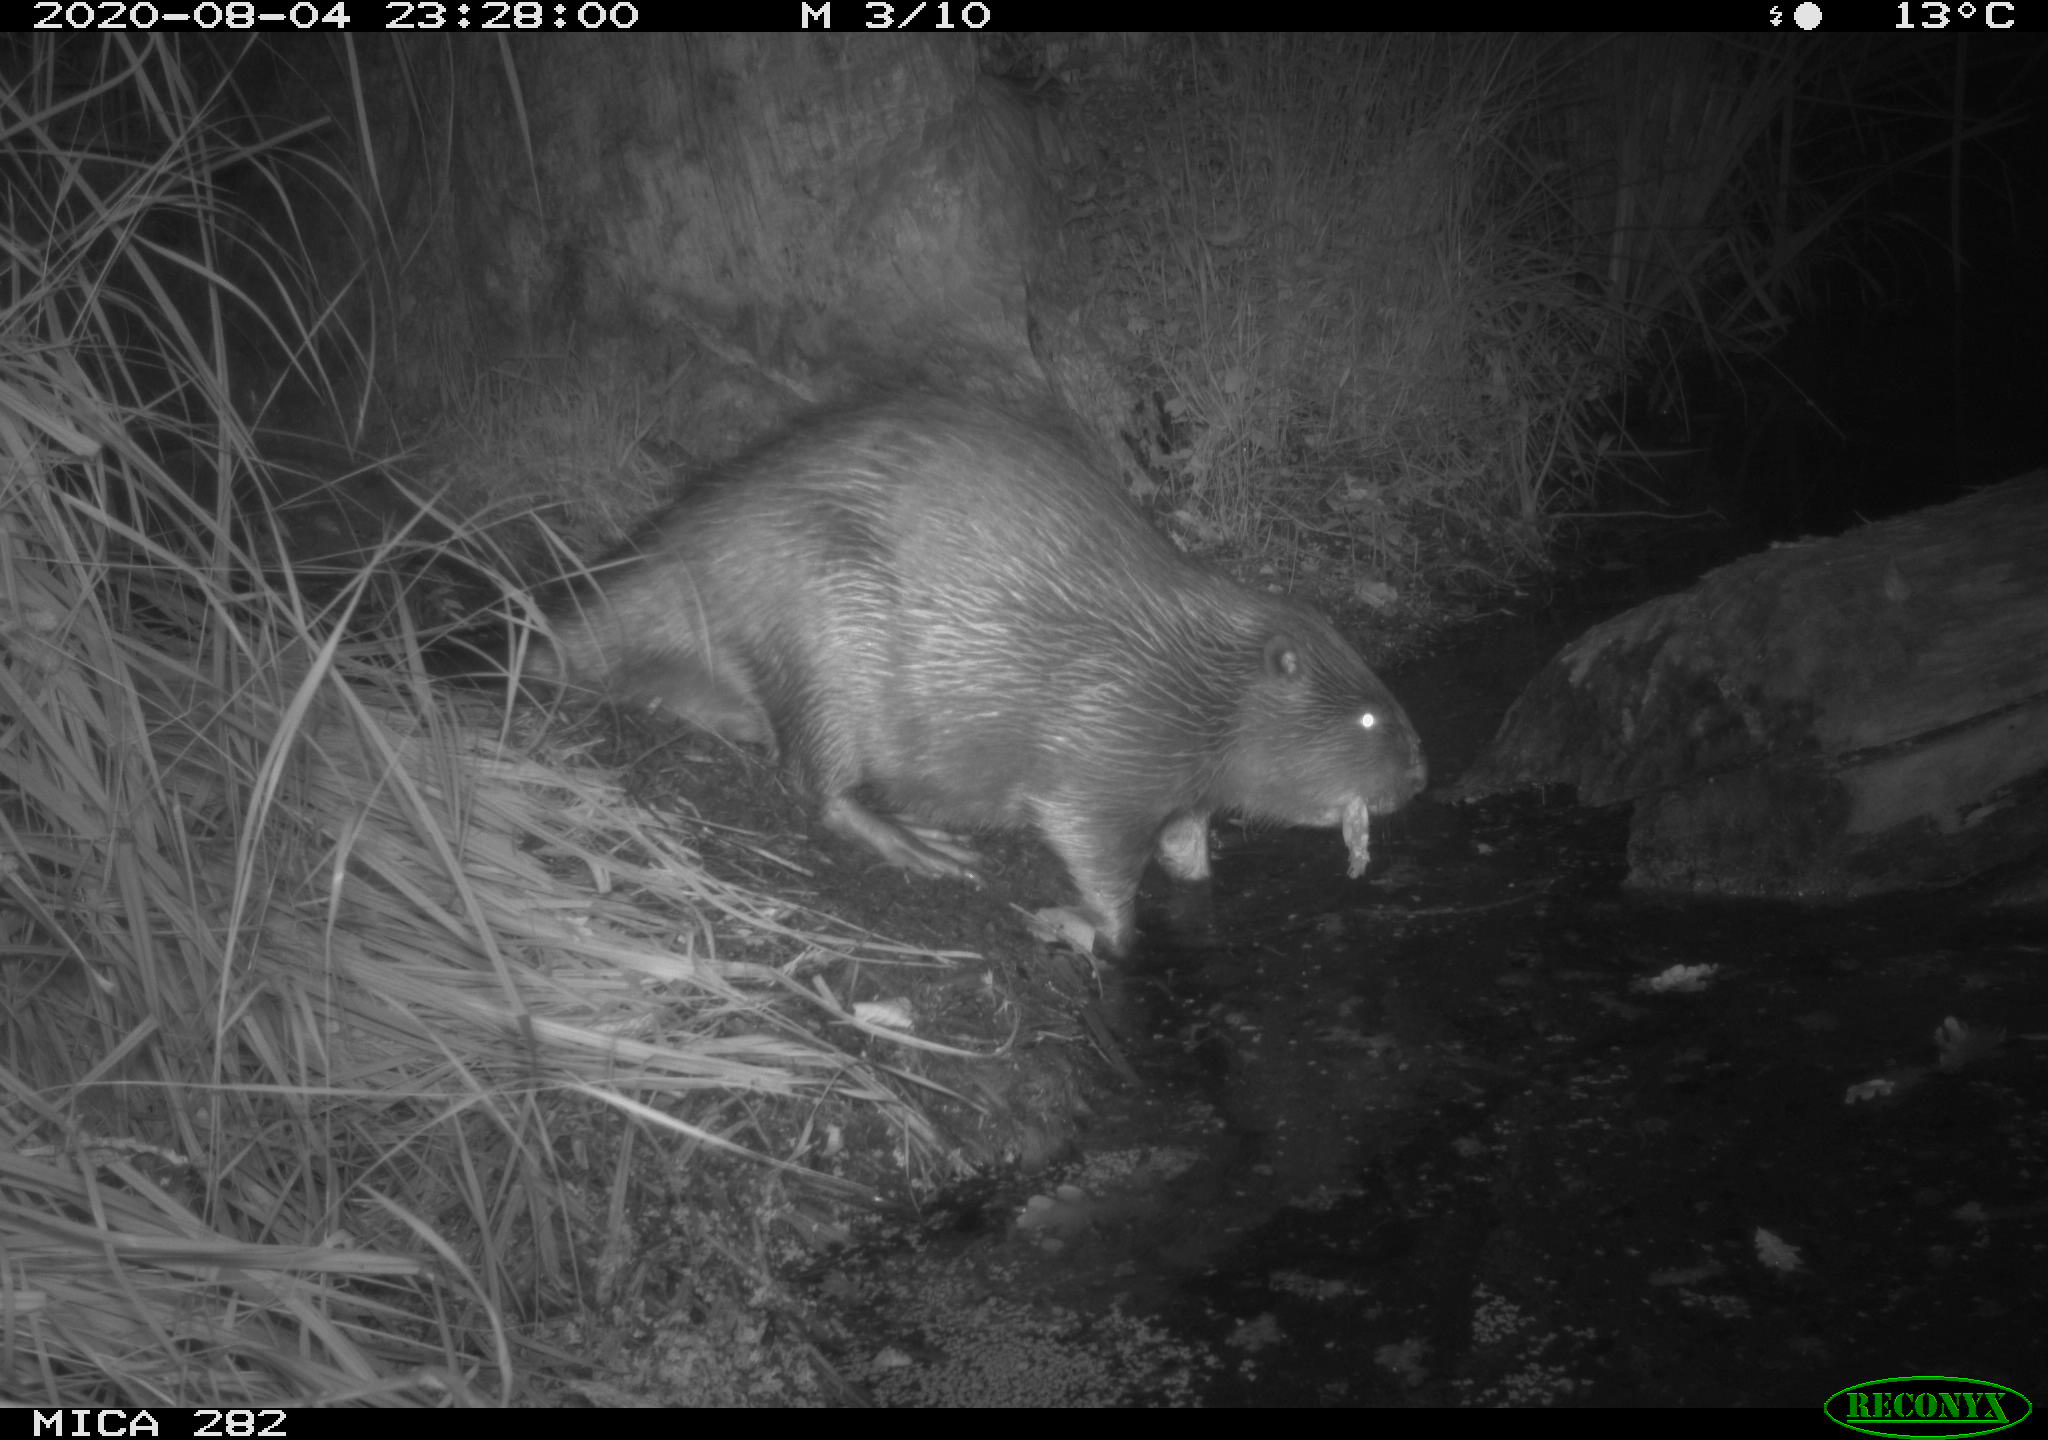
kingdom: Animalia
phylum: Chordata
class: Mammalia
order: Rodentia
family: Castoridae
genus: Castor
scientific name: Castor fiber
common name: Eurasian beaver
